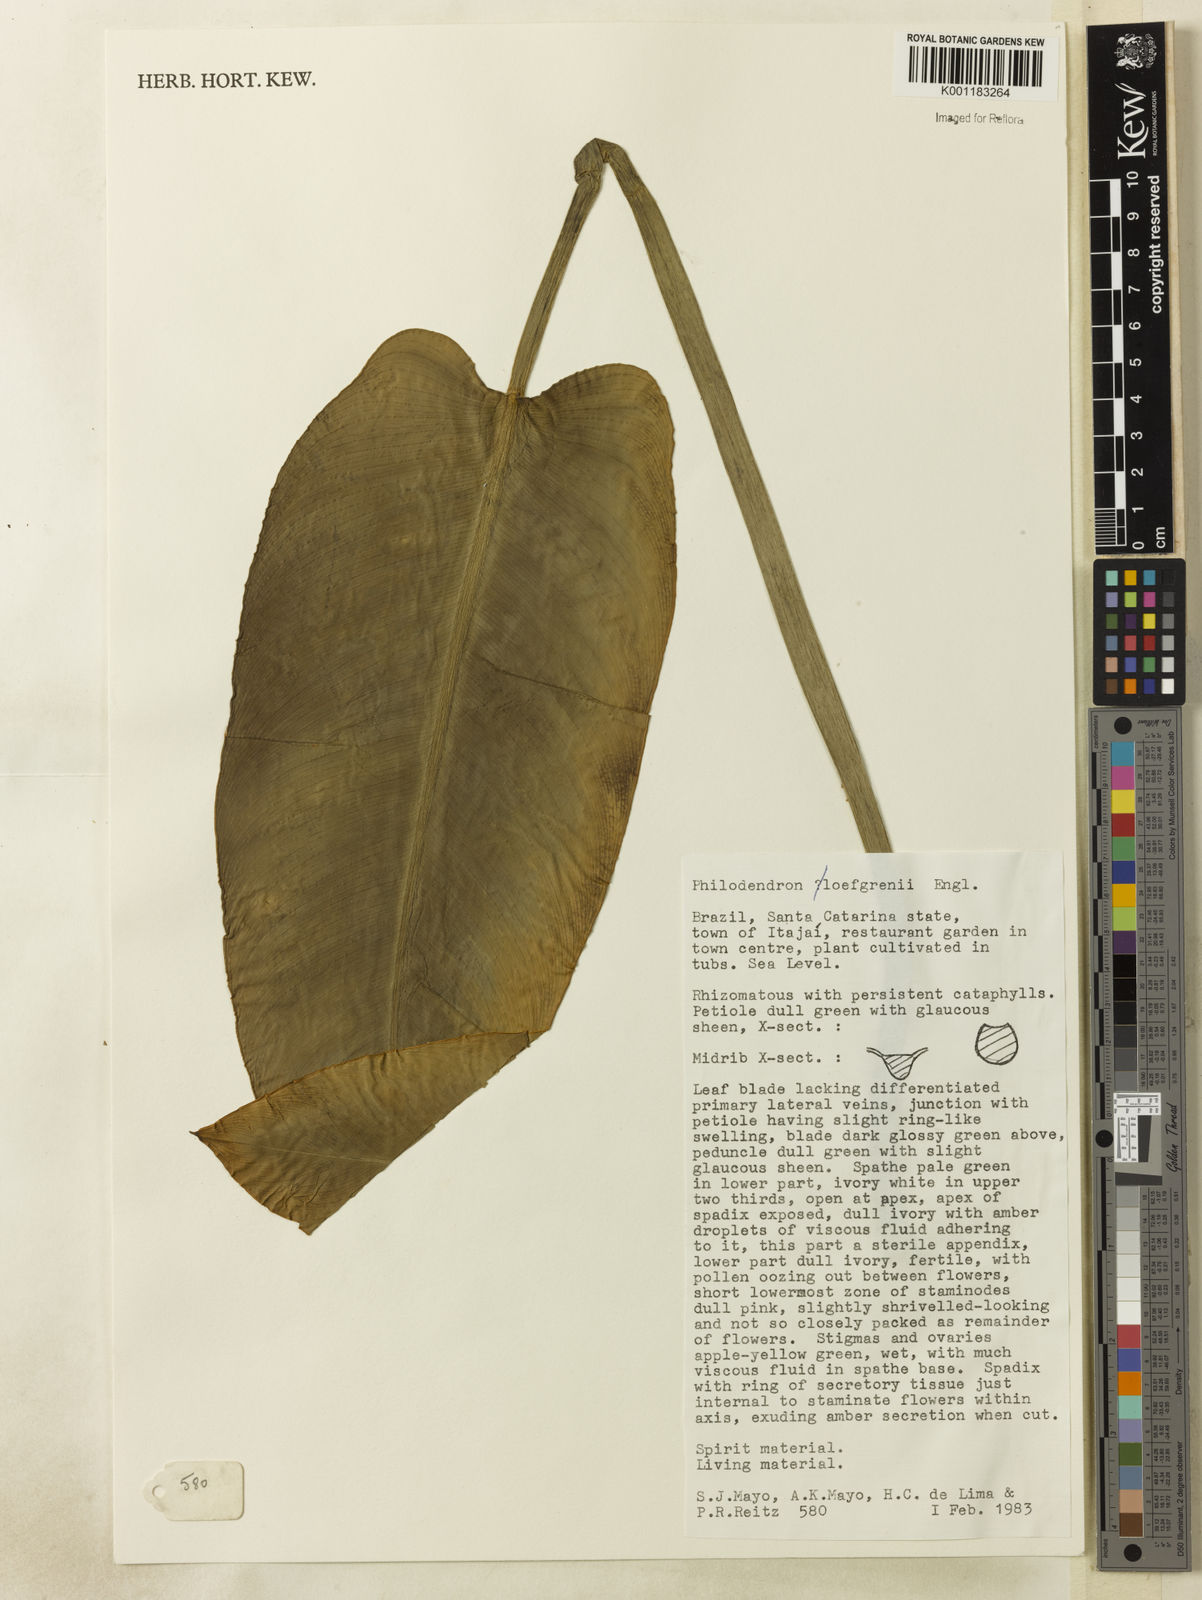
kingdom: Plantae
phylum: Tracheophyta
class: Liliopsida
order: Alismatales
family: Araceae
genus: Philodendron
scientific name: Philodendron loefgrenii
